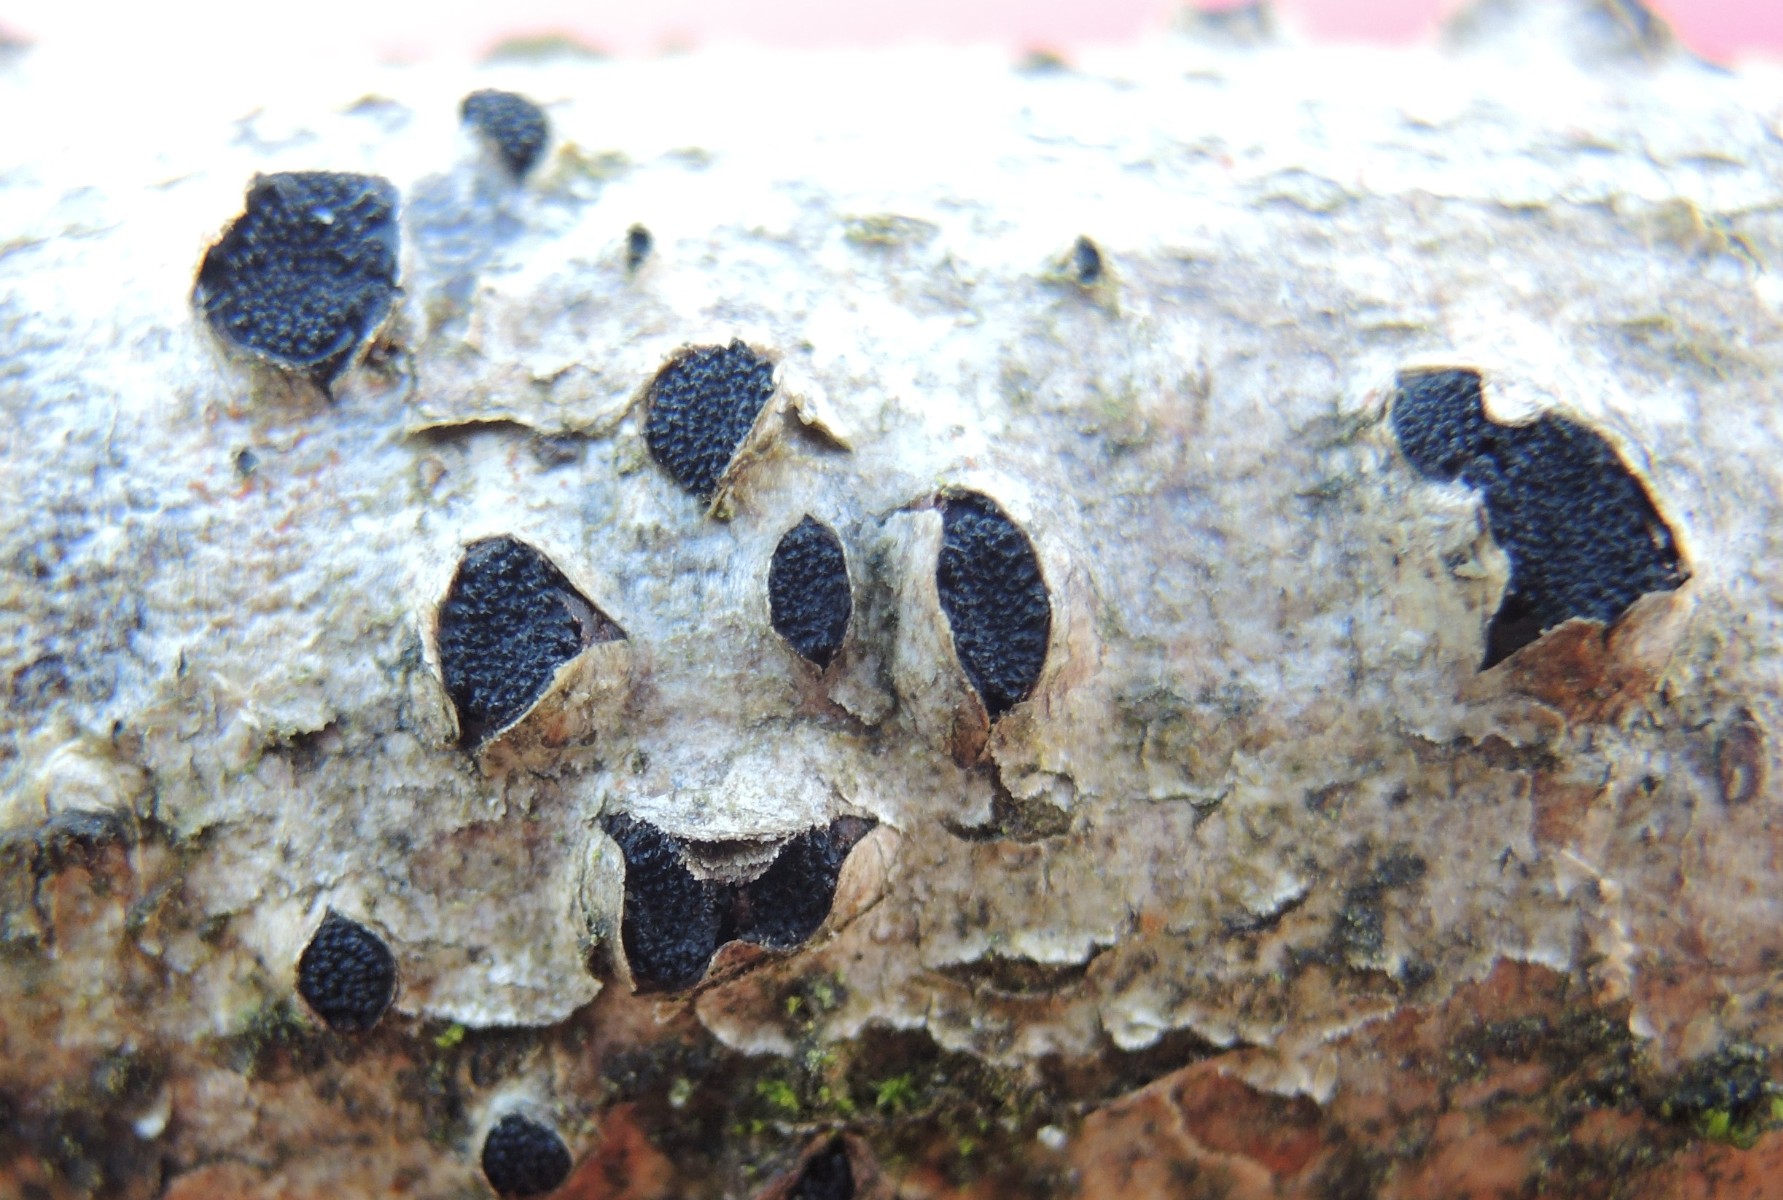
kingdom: Fungi
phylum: Ascomycota
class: Sordariomycetes
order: Xylariales
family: Diatrypaceae
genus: Eutypella
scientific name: Eutypella sorbi
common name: rønne-kulskorpe
